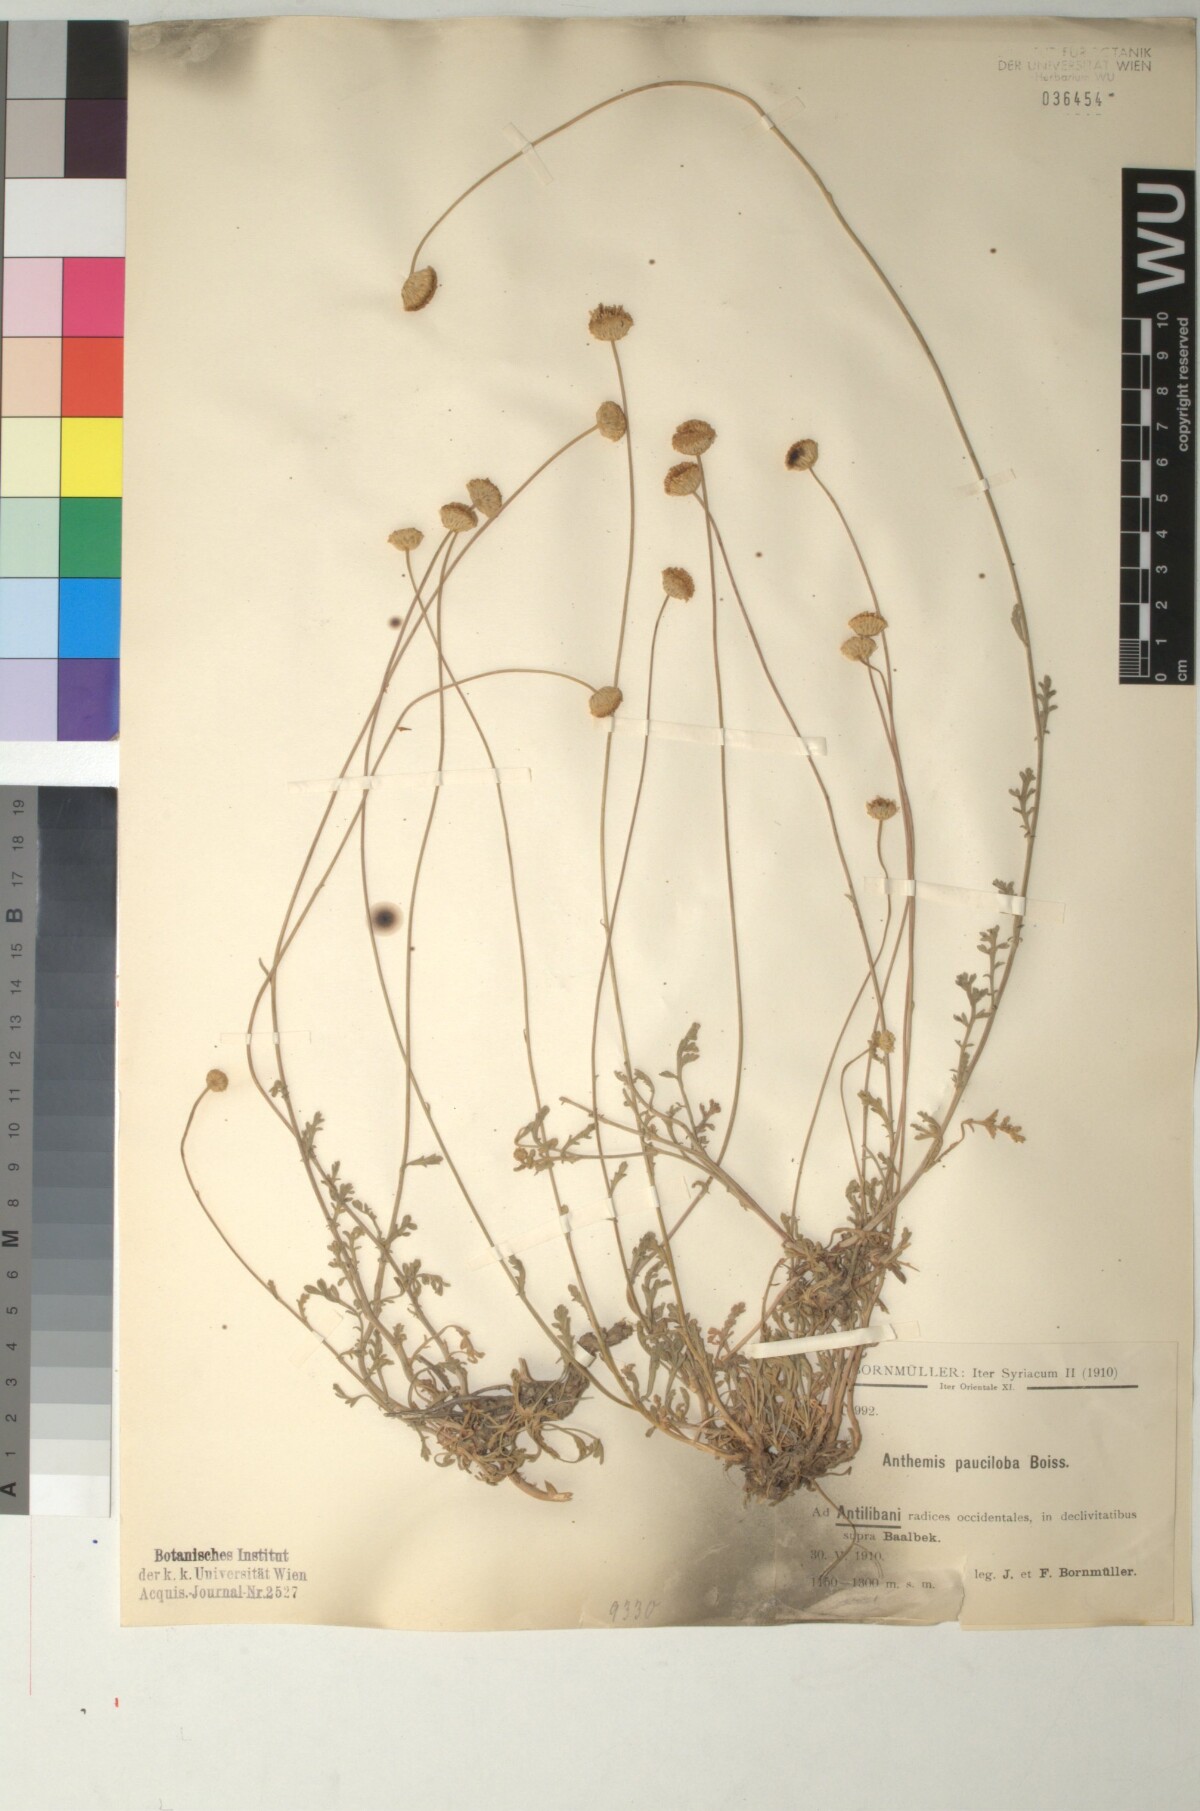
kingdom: Plantae
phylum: Tracheophyta
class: Magnoliopsida
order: Asterales
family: Asteraceae
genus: Anthemis
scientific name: Anthemis pauciloba
